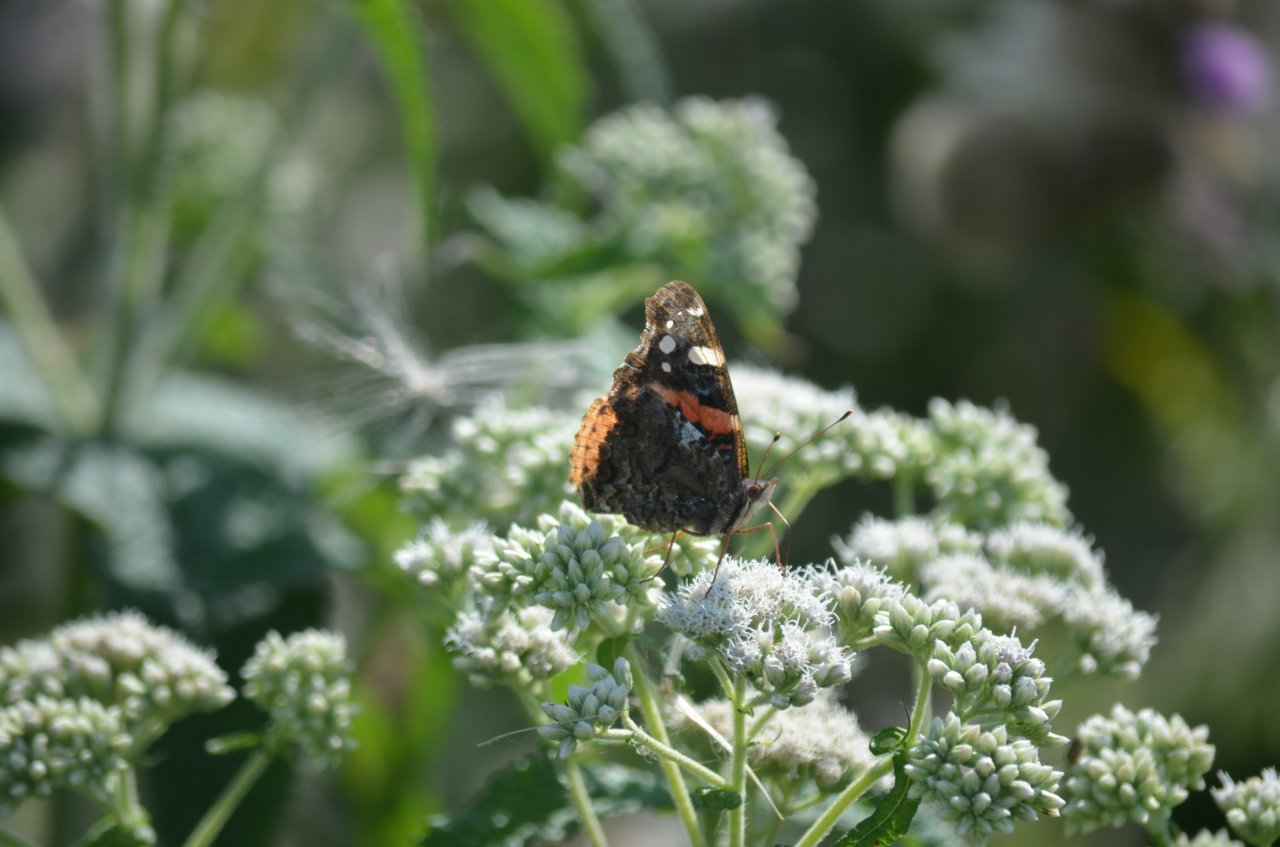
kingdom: Animalia
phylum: Arthropoda
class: Insecta
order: Lepidoptera
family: Nymphalidae
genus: Vanessa
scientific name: Vanessa atalanta
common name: Red Admiral
